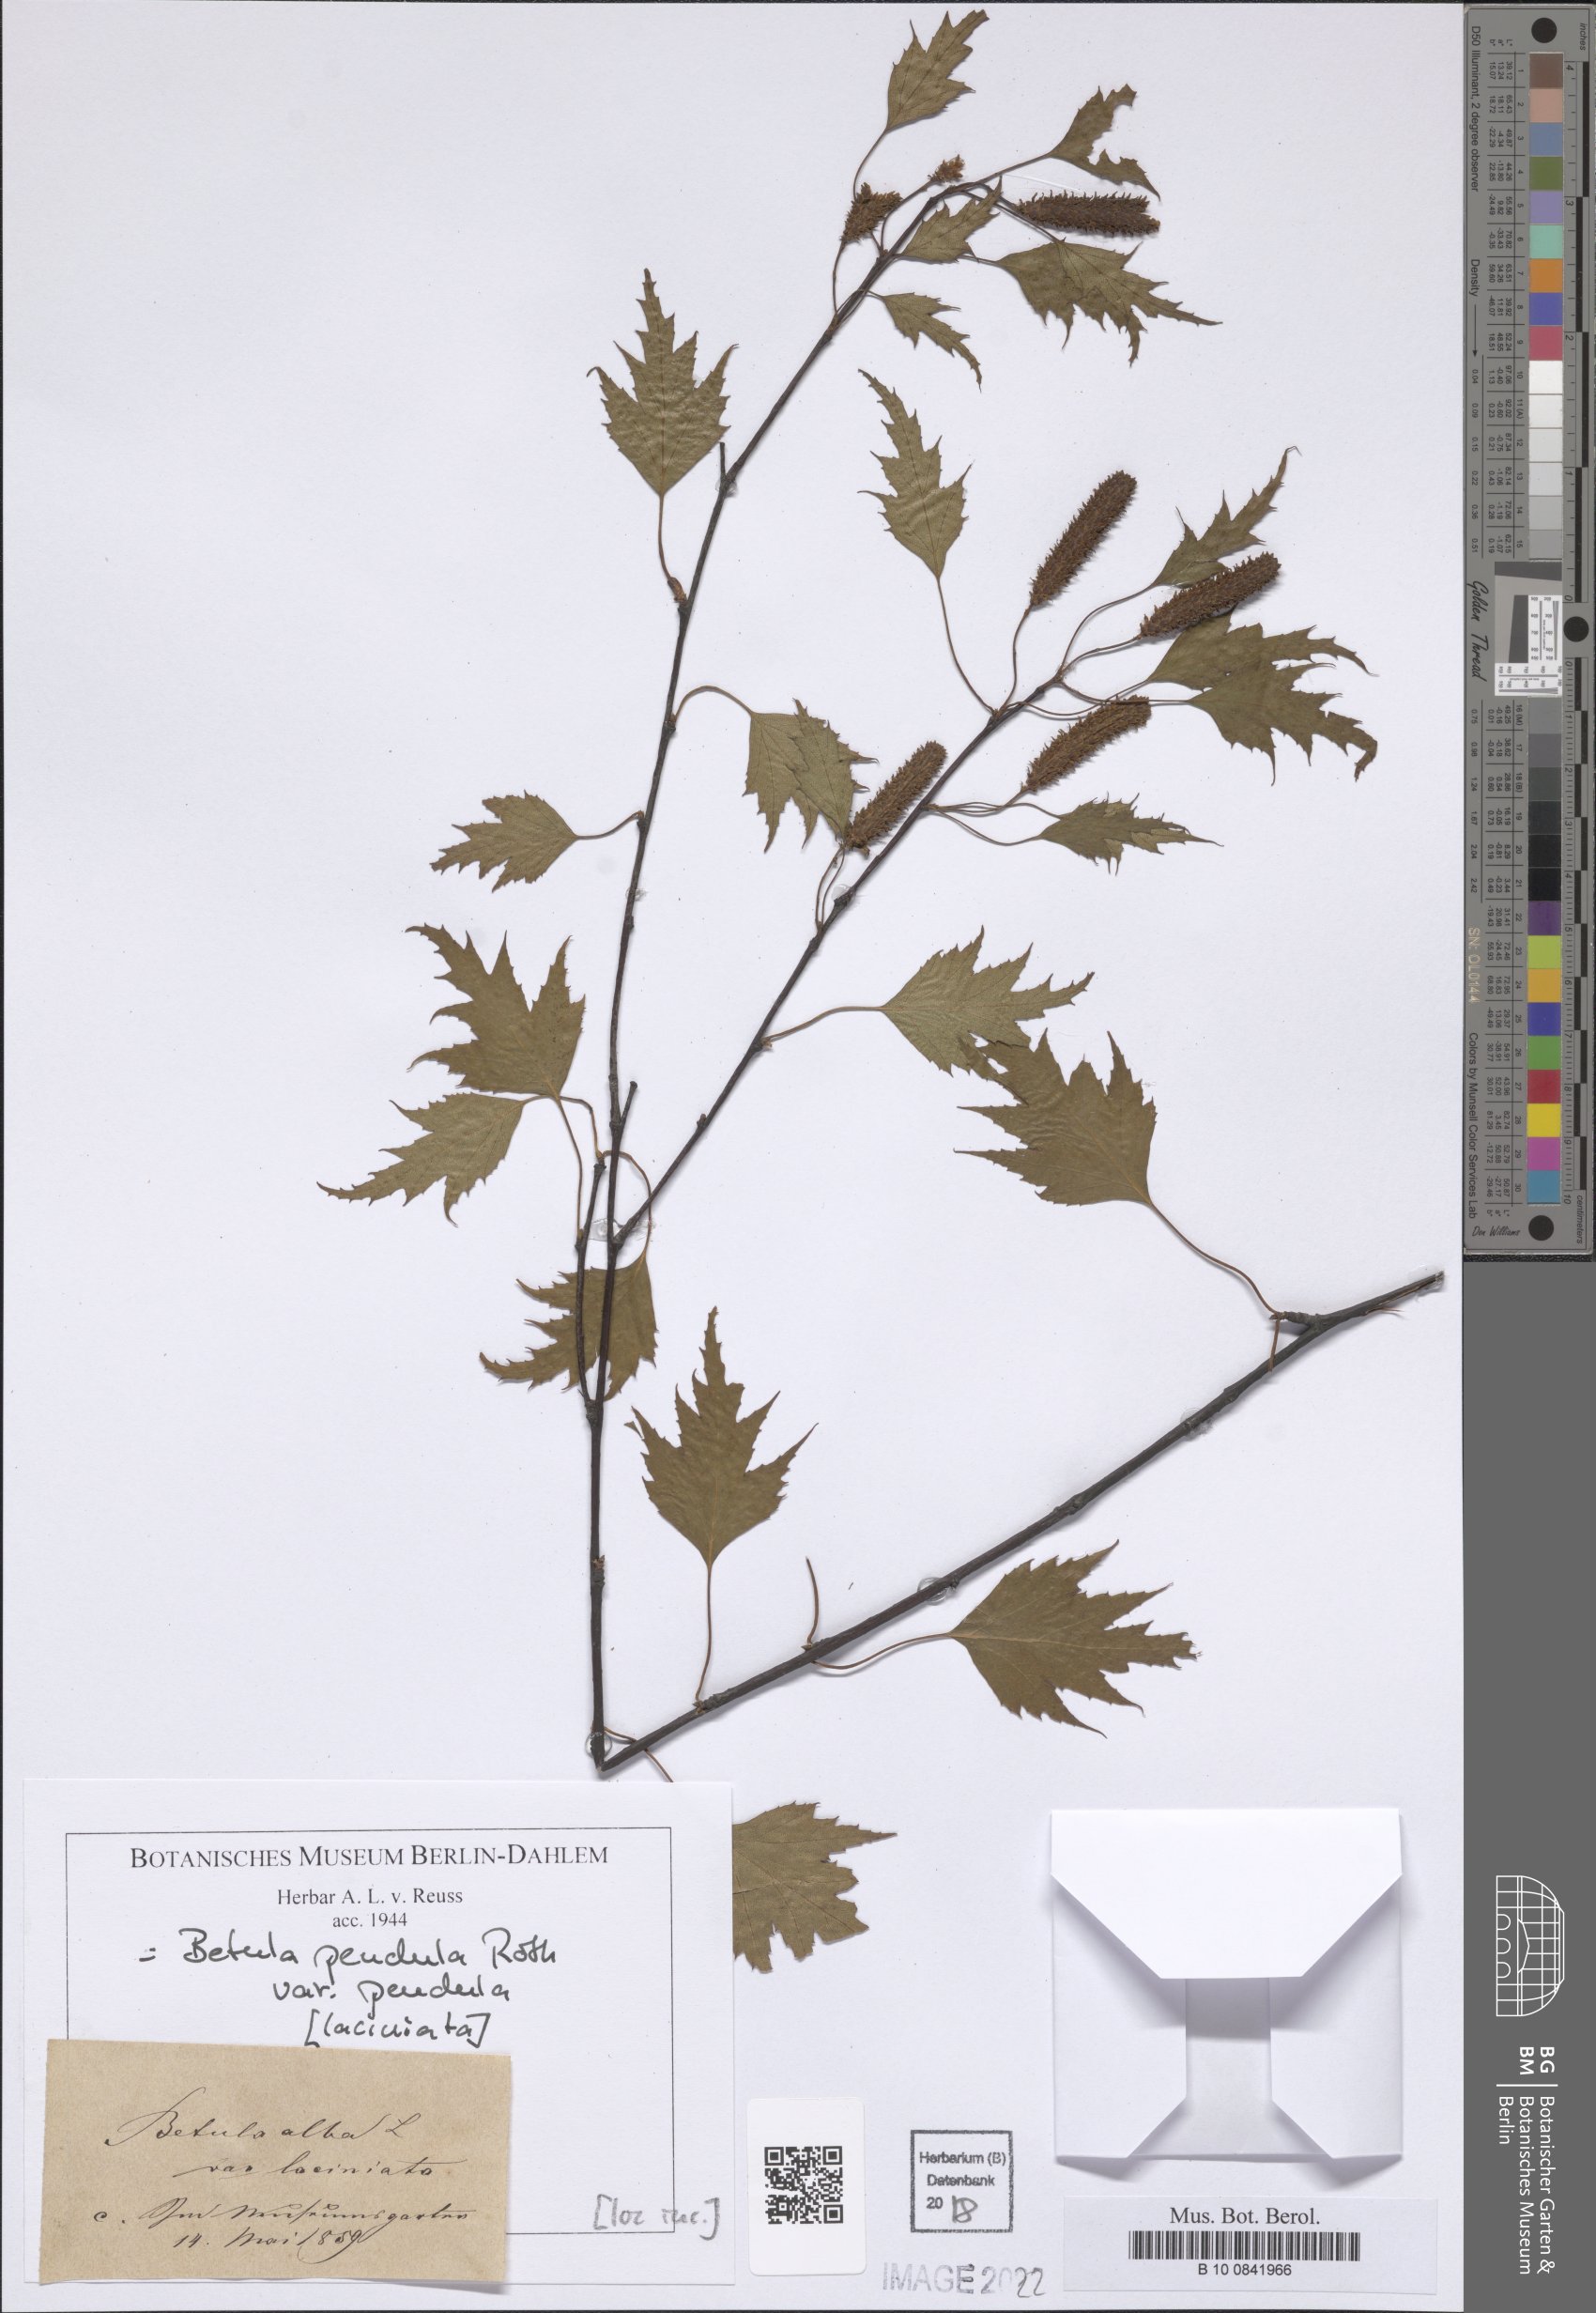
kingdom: Plantae
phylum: Tracheophyta
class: Magnoliopsida
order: Fagales
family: Betulaceae
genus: Betula
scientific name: Betula pendula
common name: Silver birch
